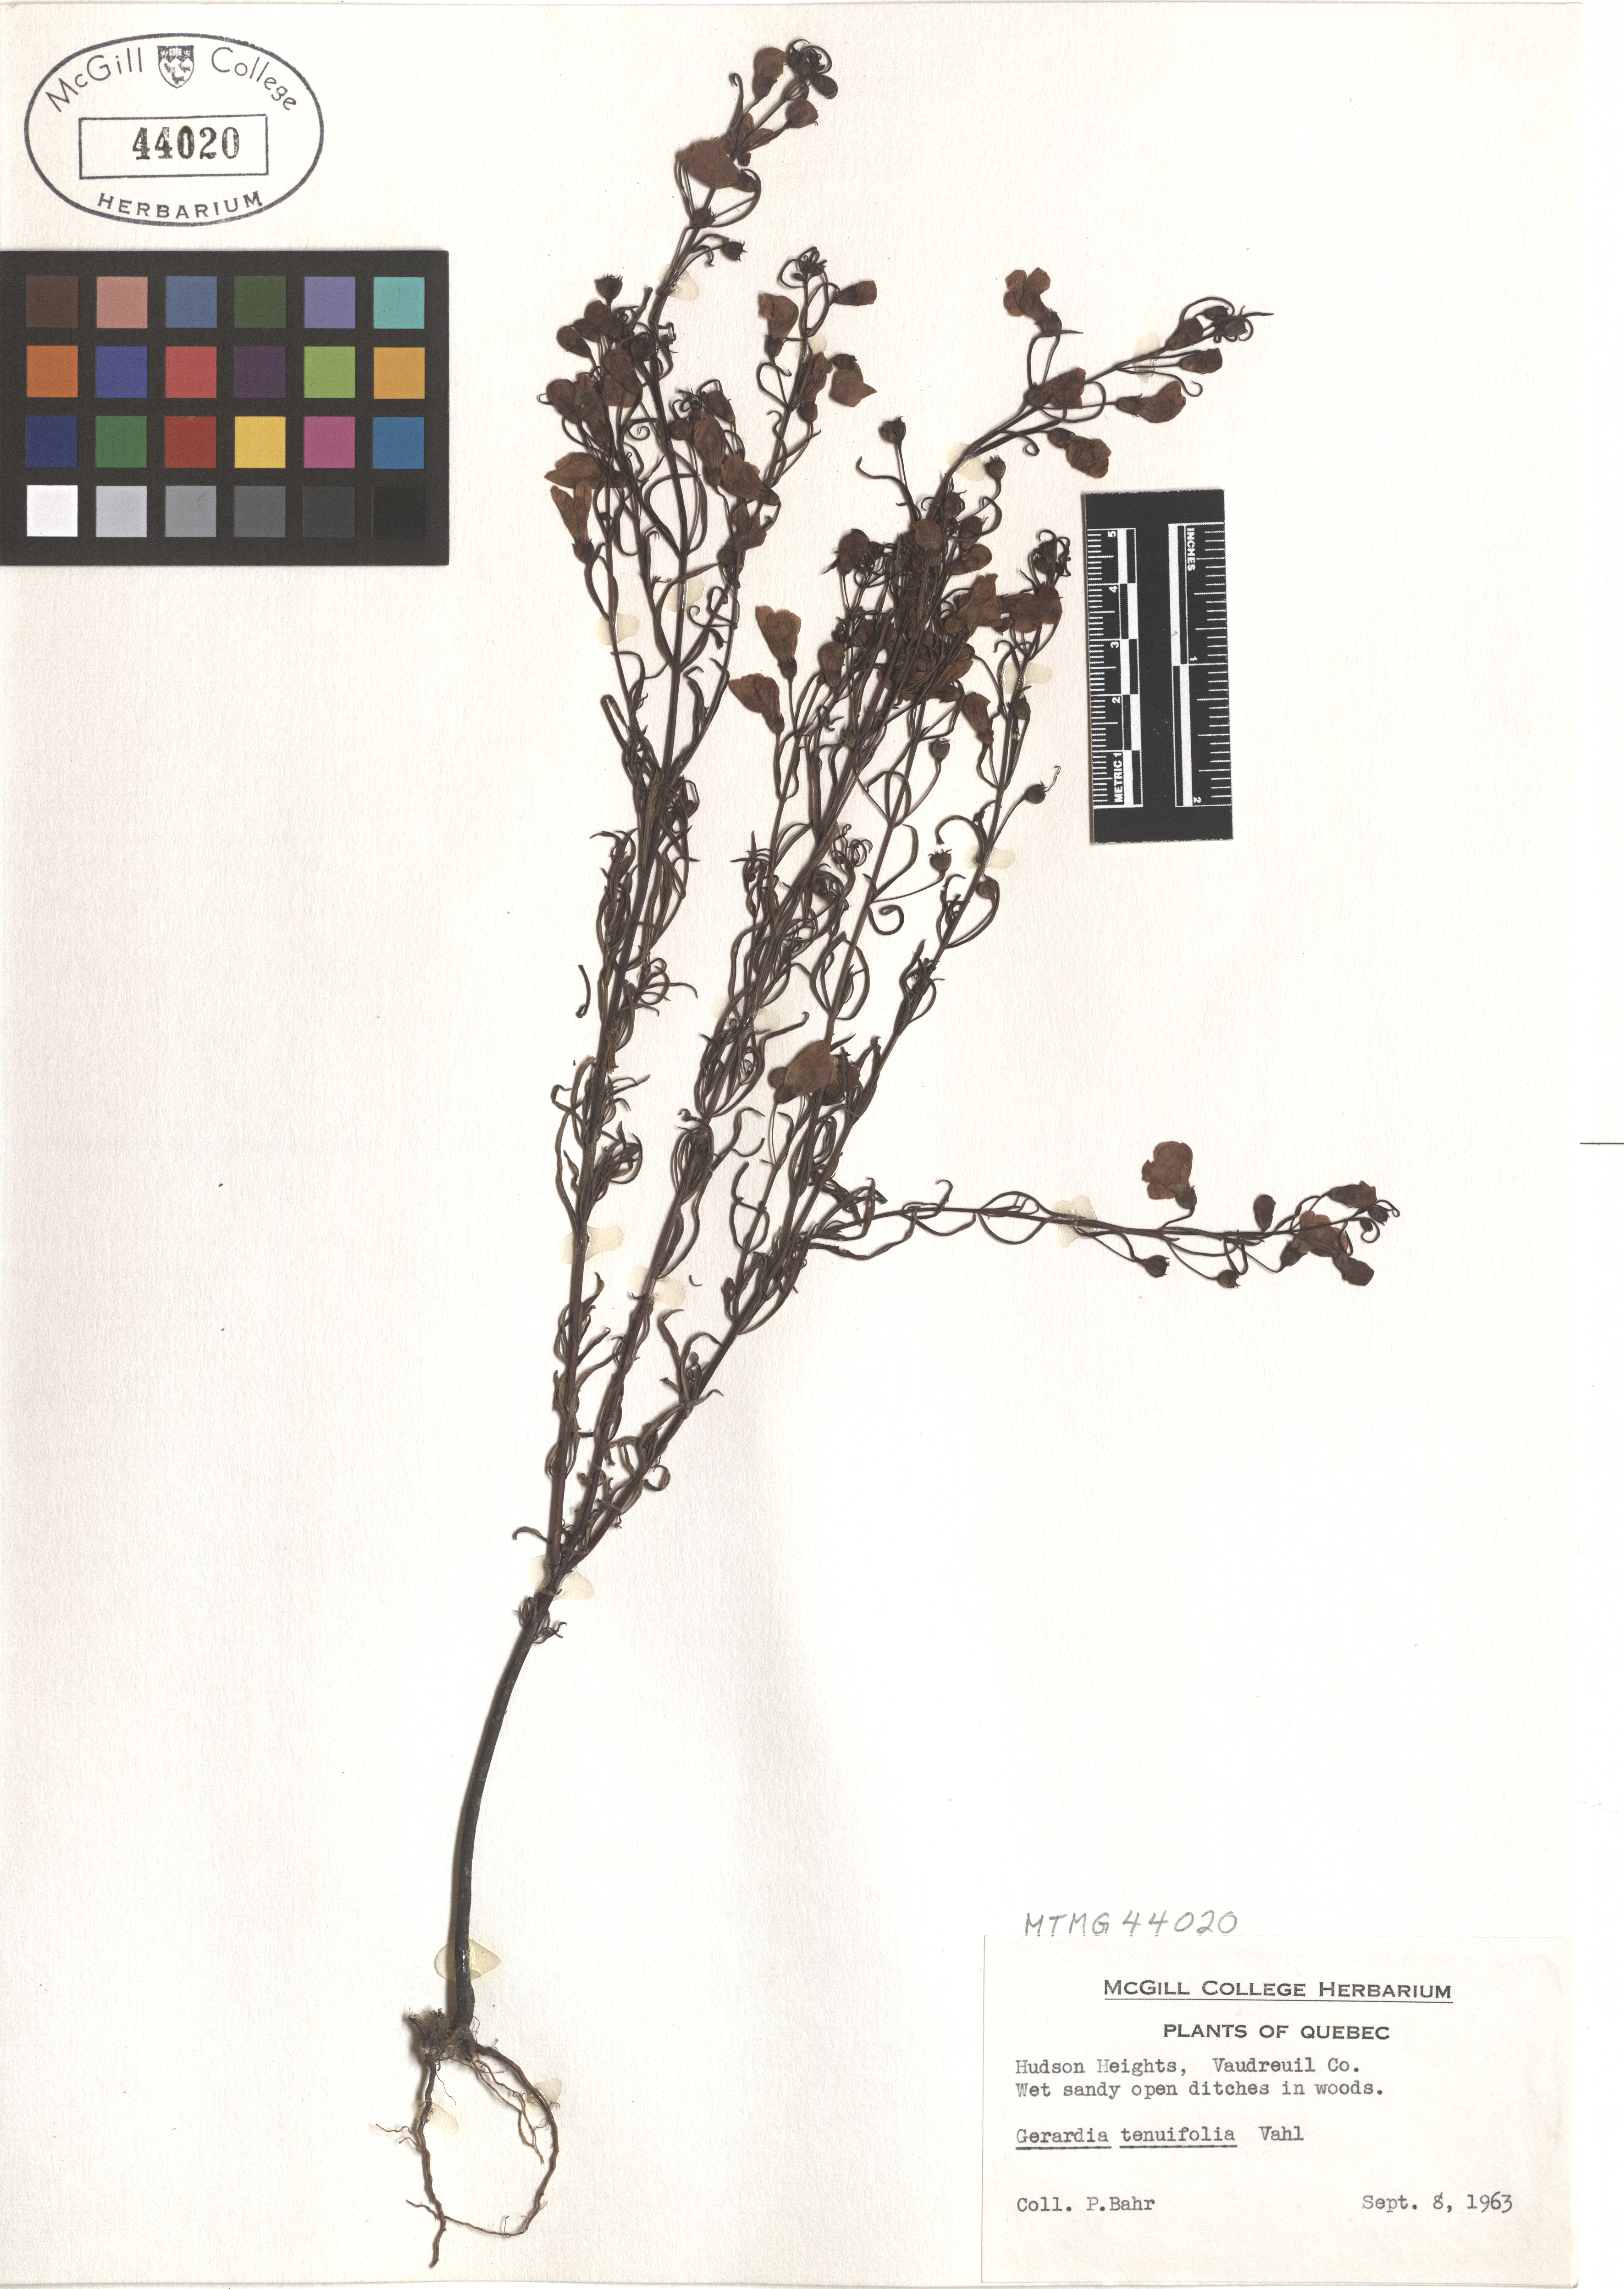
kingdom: Plantae
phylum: Tracheophyta
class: Magnoliopsida
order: Lamiales
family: Orobanchaceae
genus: Agalinis
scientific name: Agalinis tenuifolia
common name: Slender agalinis
